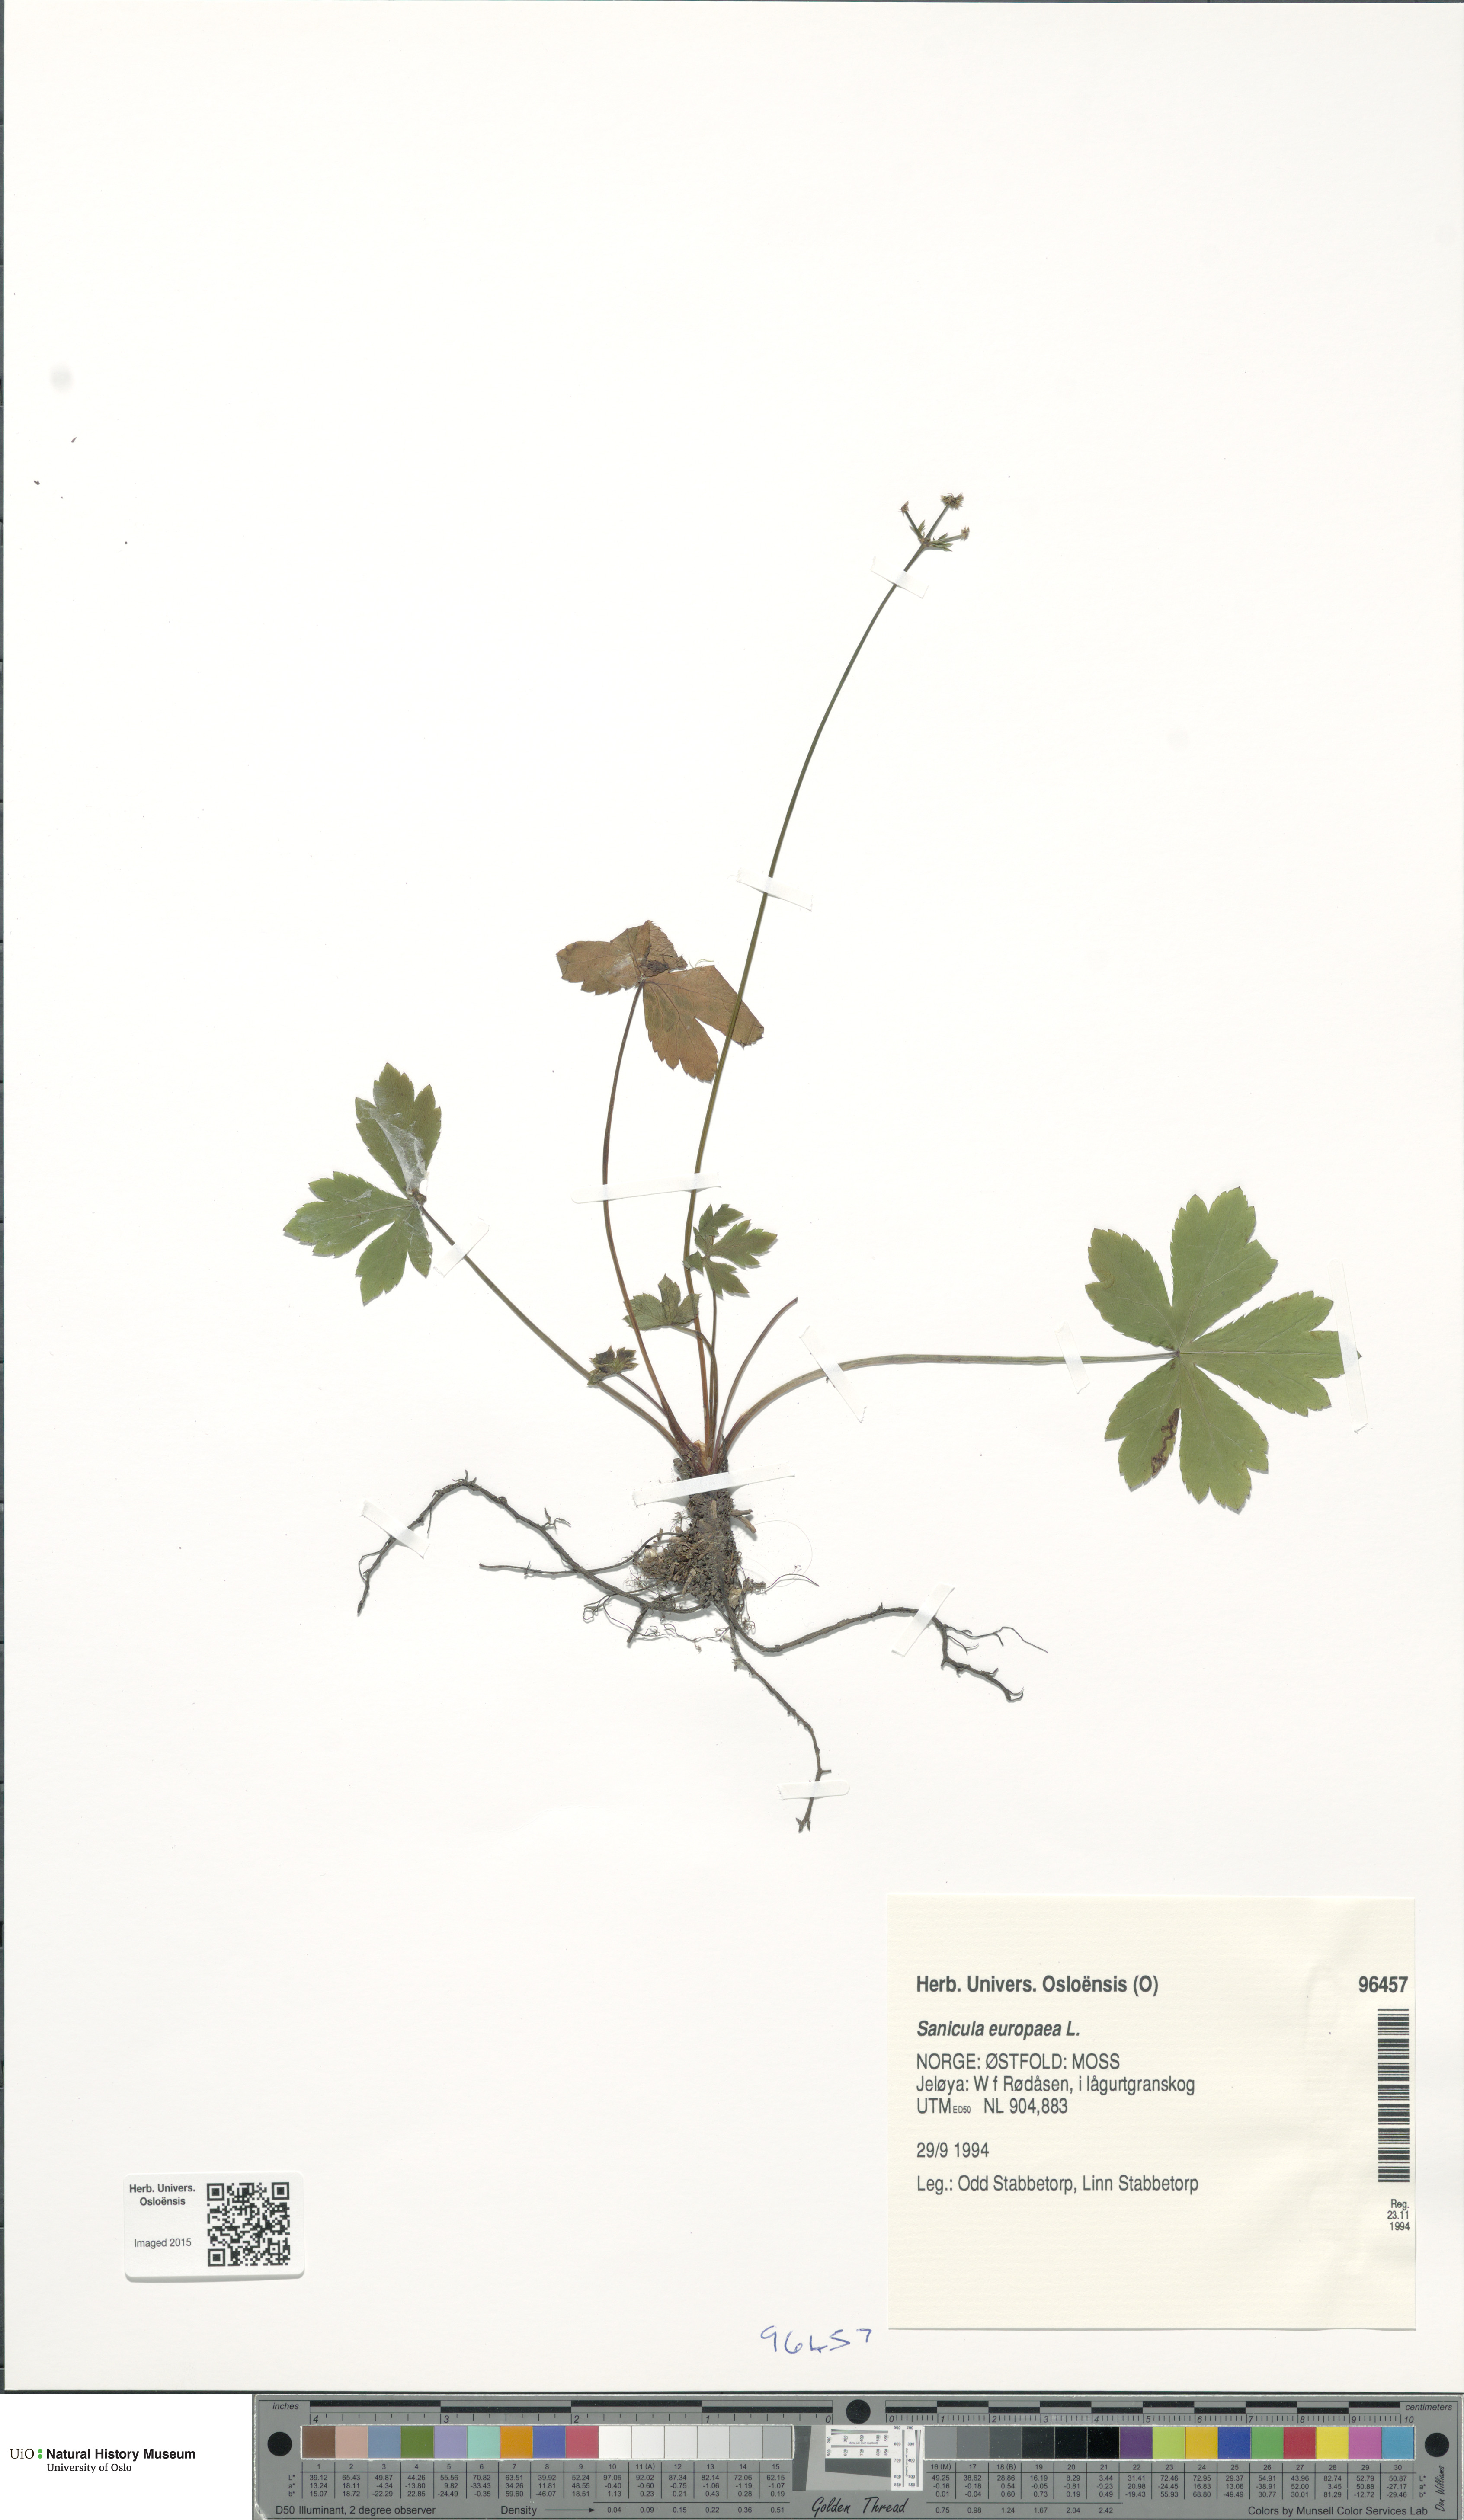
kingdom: Plantae
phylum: Tracheophyta
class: Magnoliopsida
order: Apiales
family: Apiaceae
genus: Sanicula
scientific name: Sanicula europaea
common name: Sanicle
